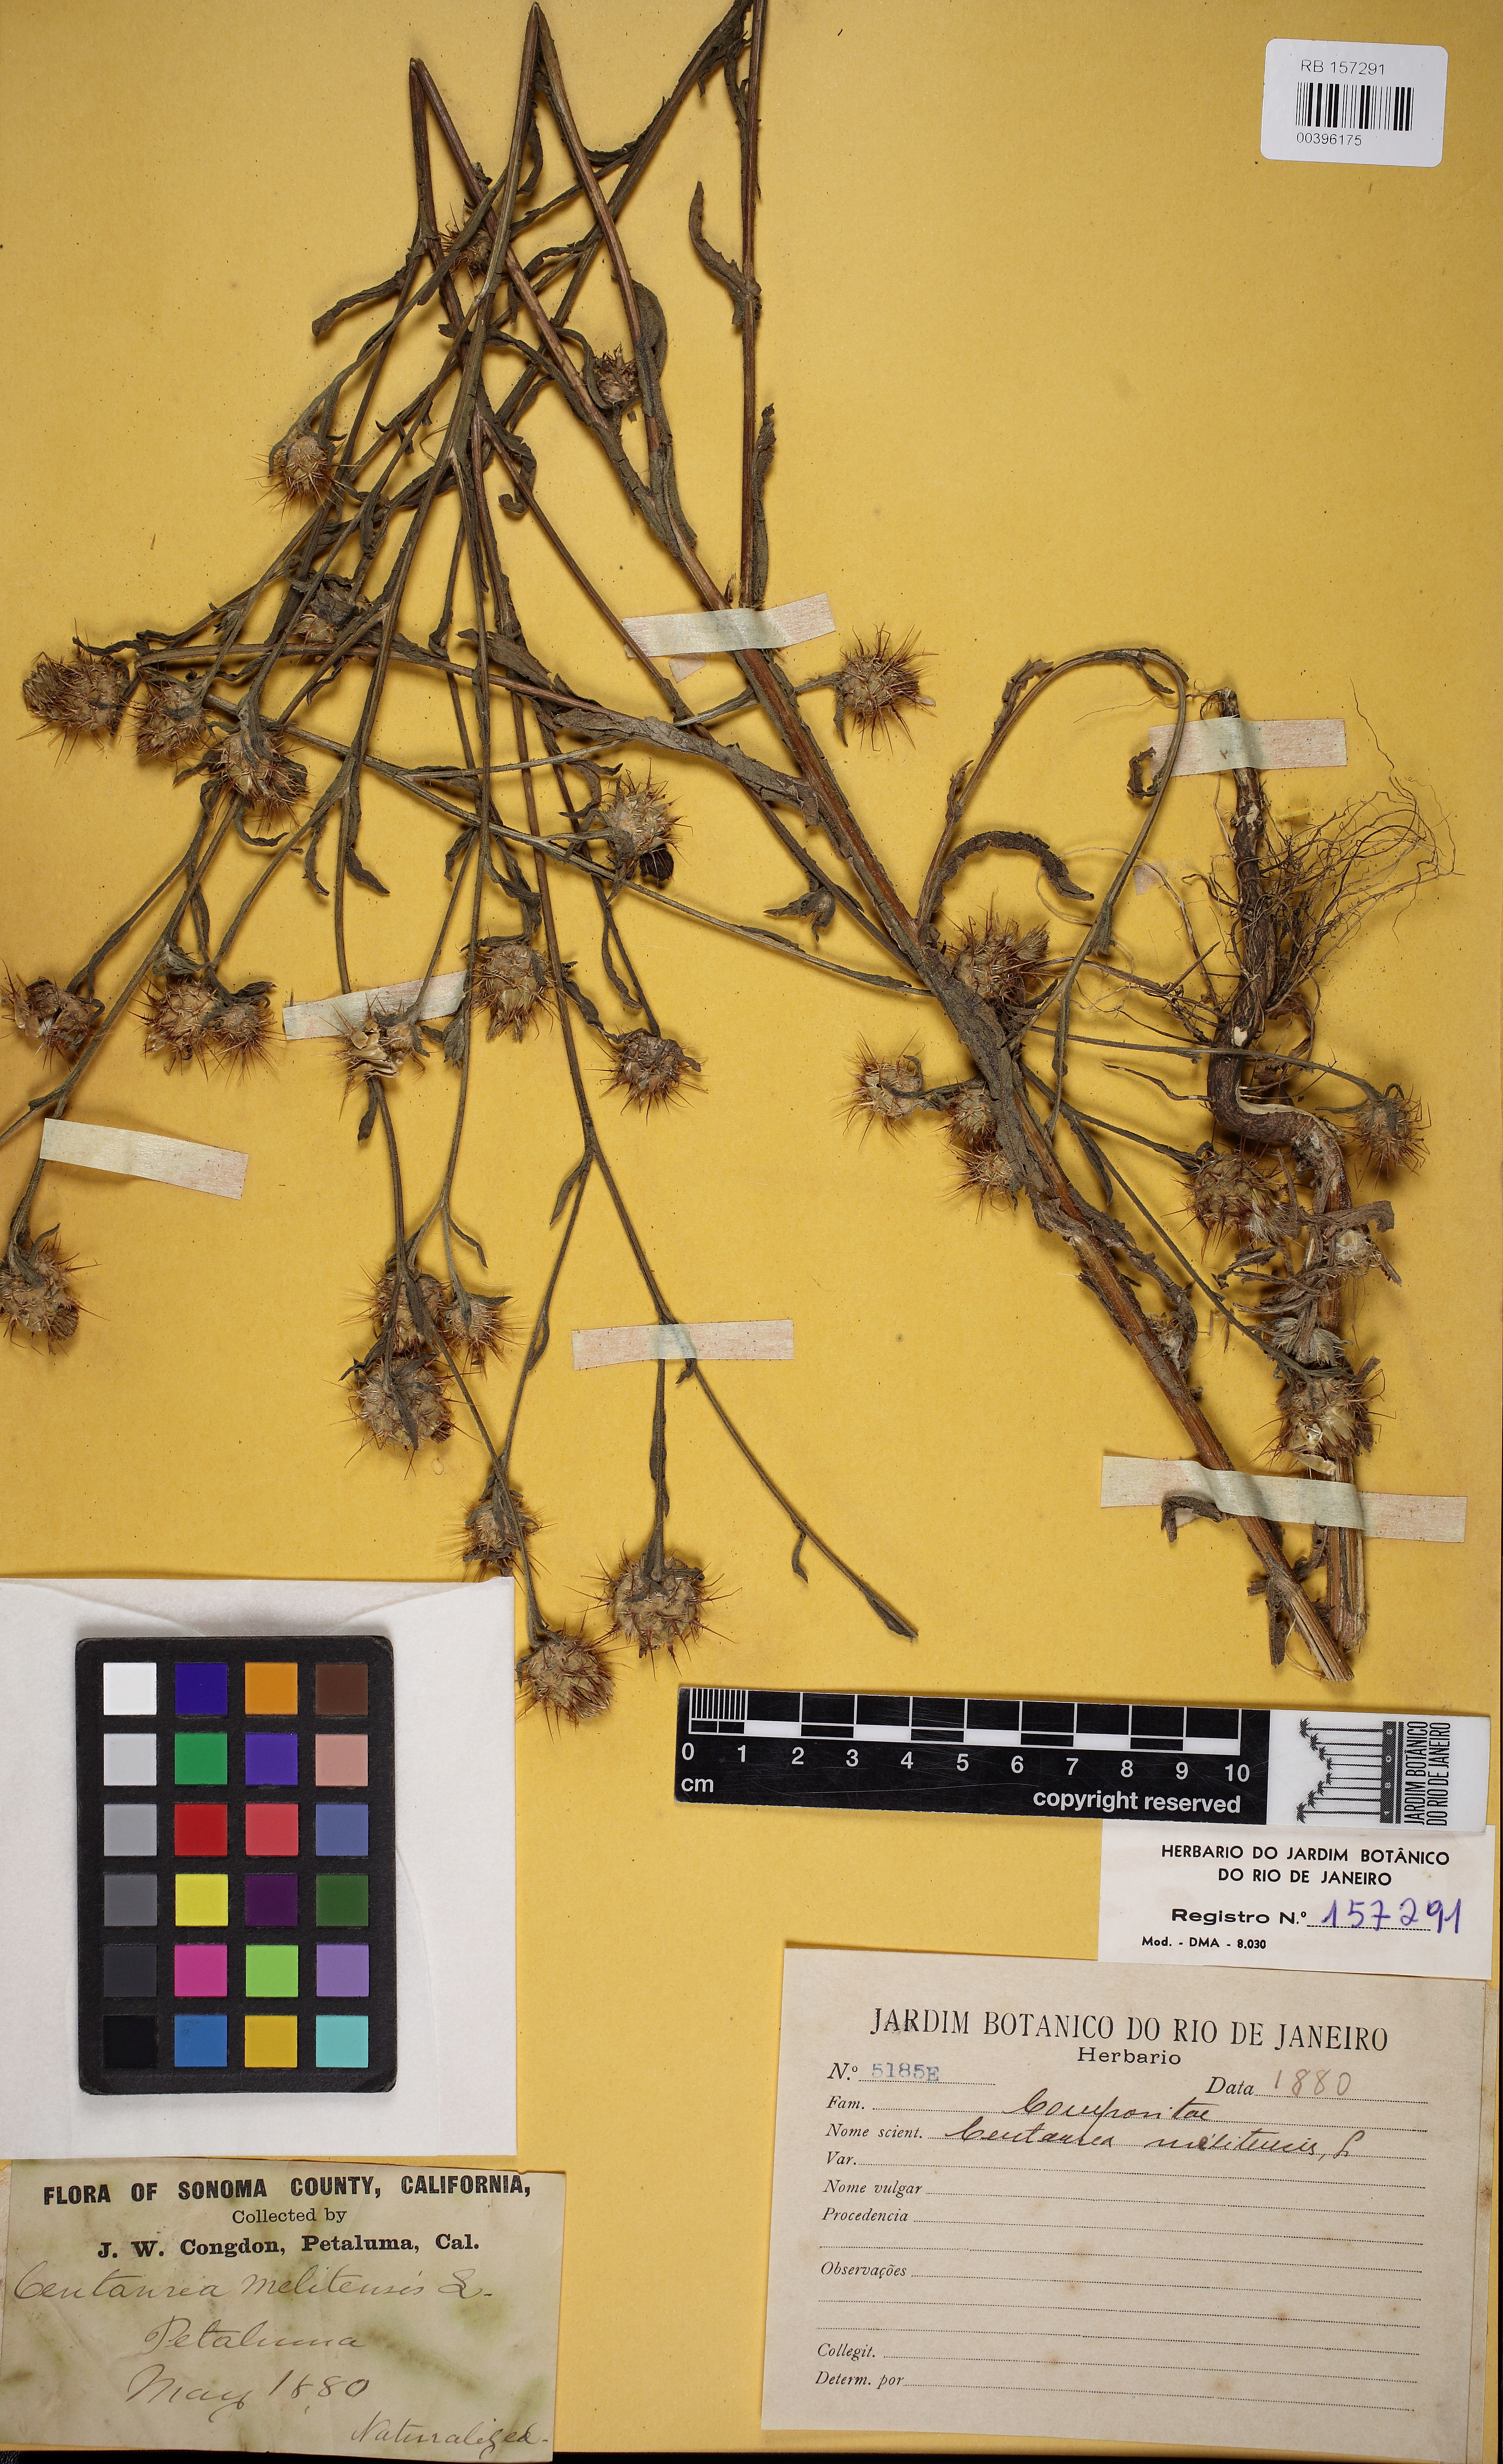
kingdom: Plantae
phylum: Tracheophyta
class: Magnoliopsida
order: Asterales
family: Asteraceae
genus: Centaurea
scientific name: Centaurea melitensis
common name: Maltese star-thistle
